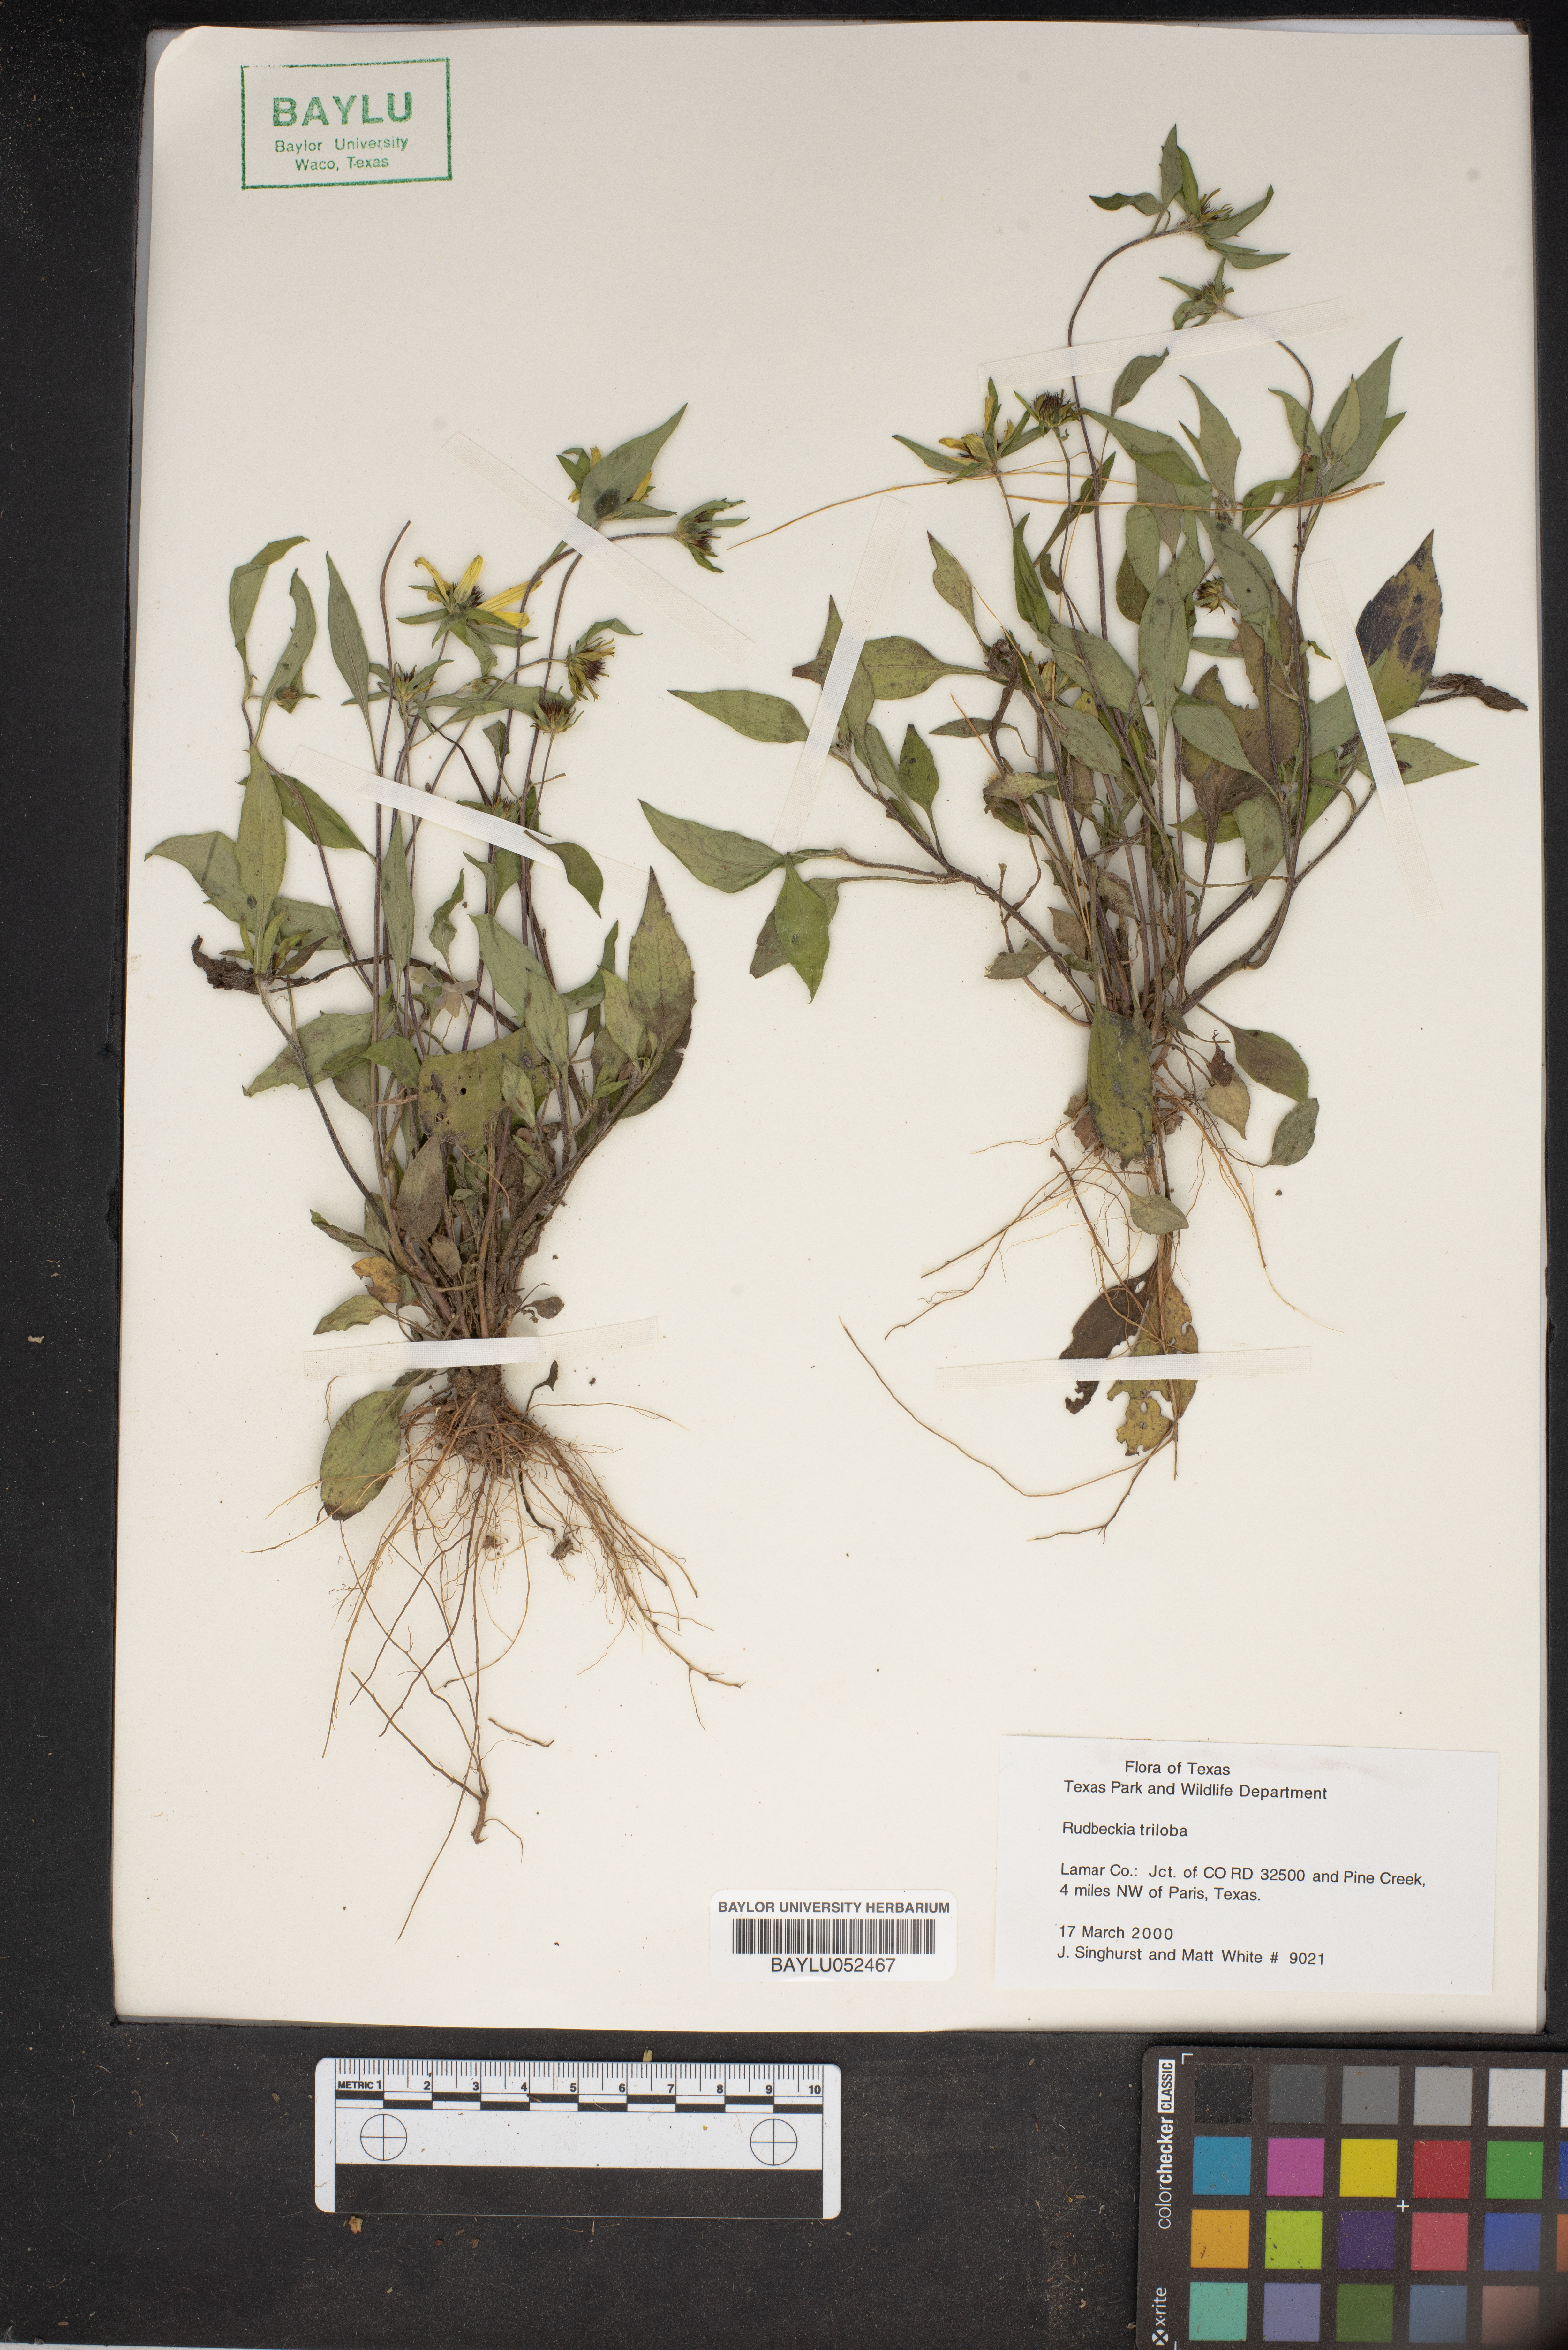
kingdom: Plantae
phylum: Tracheophyta
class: Magnoliopsida
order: Asterales
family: Asteraceae
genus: Rudbeckia
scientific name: Rudbeckia triloba
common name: Thin-leaved coneflower
